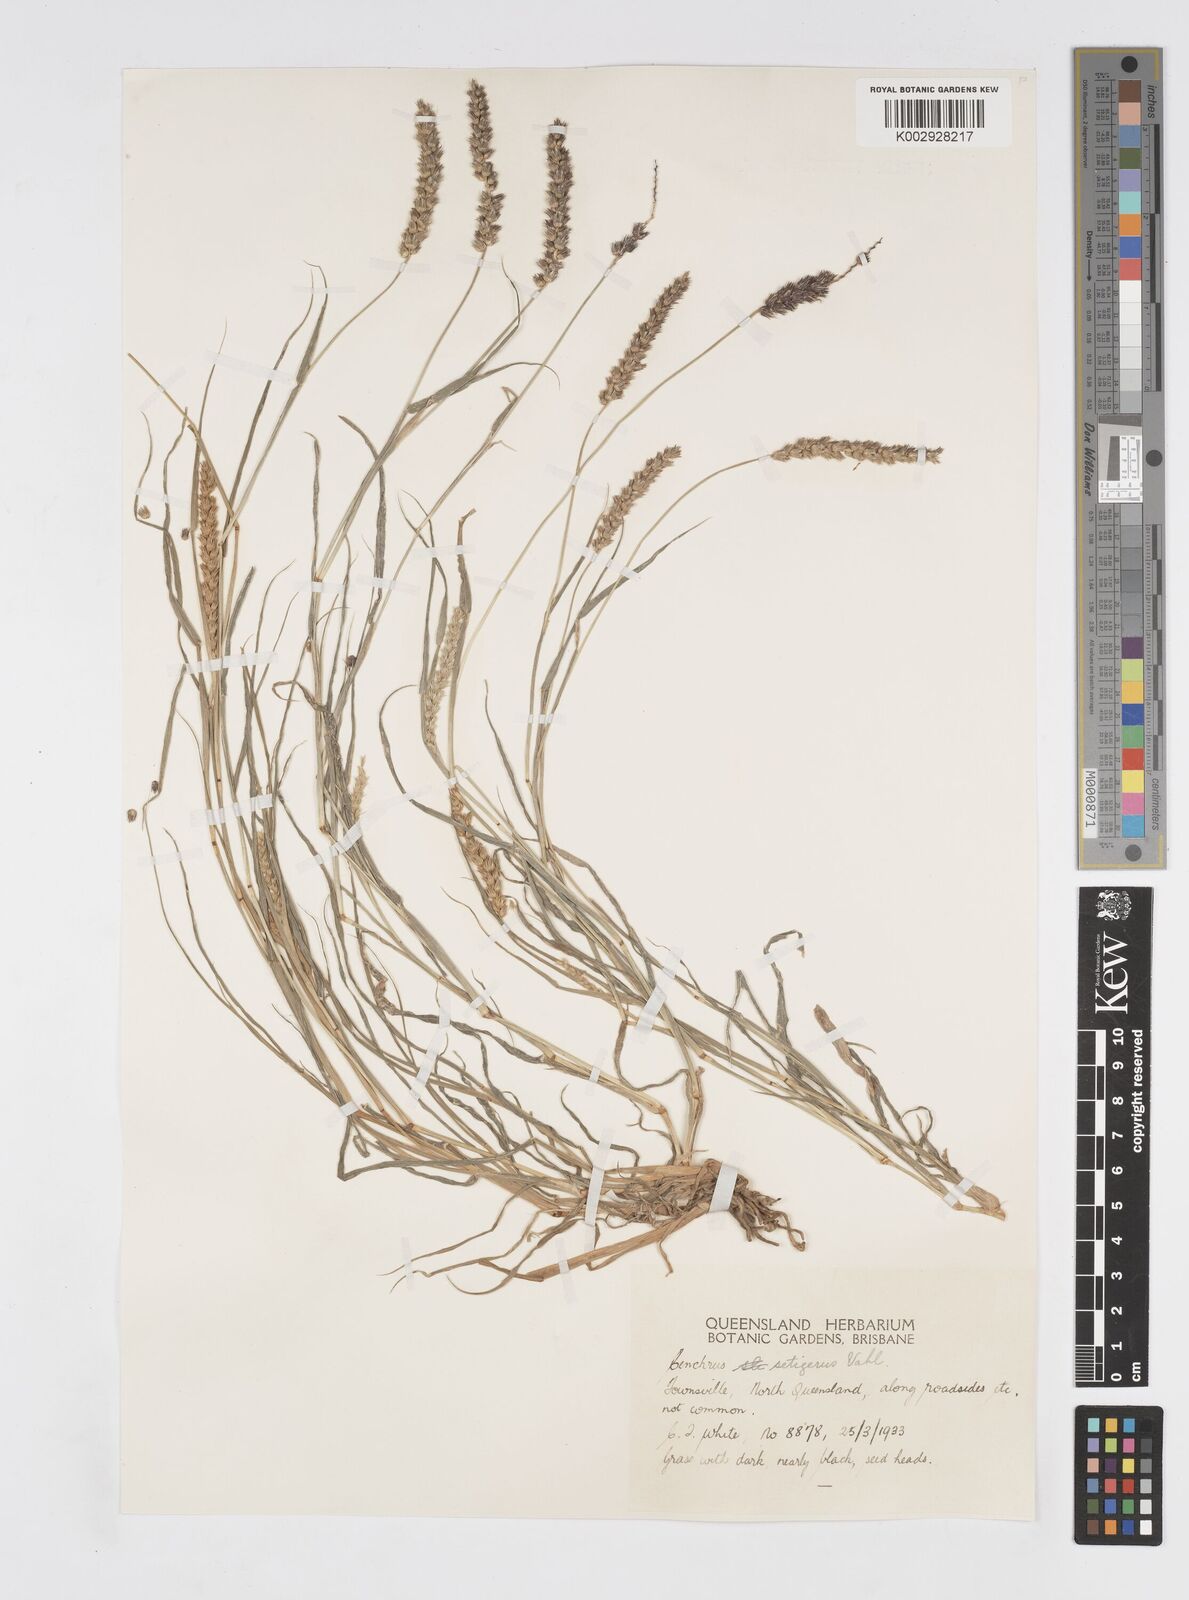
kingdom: Plantae
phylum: Tracheophyta
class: Liliopsida
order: Poales
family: Poaceae
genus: Cenchrus
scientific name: Cenchrus setigerus
